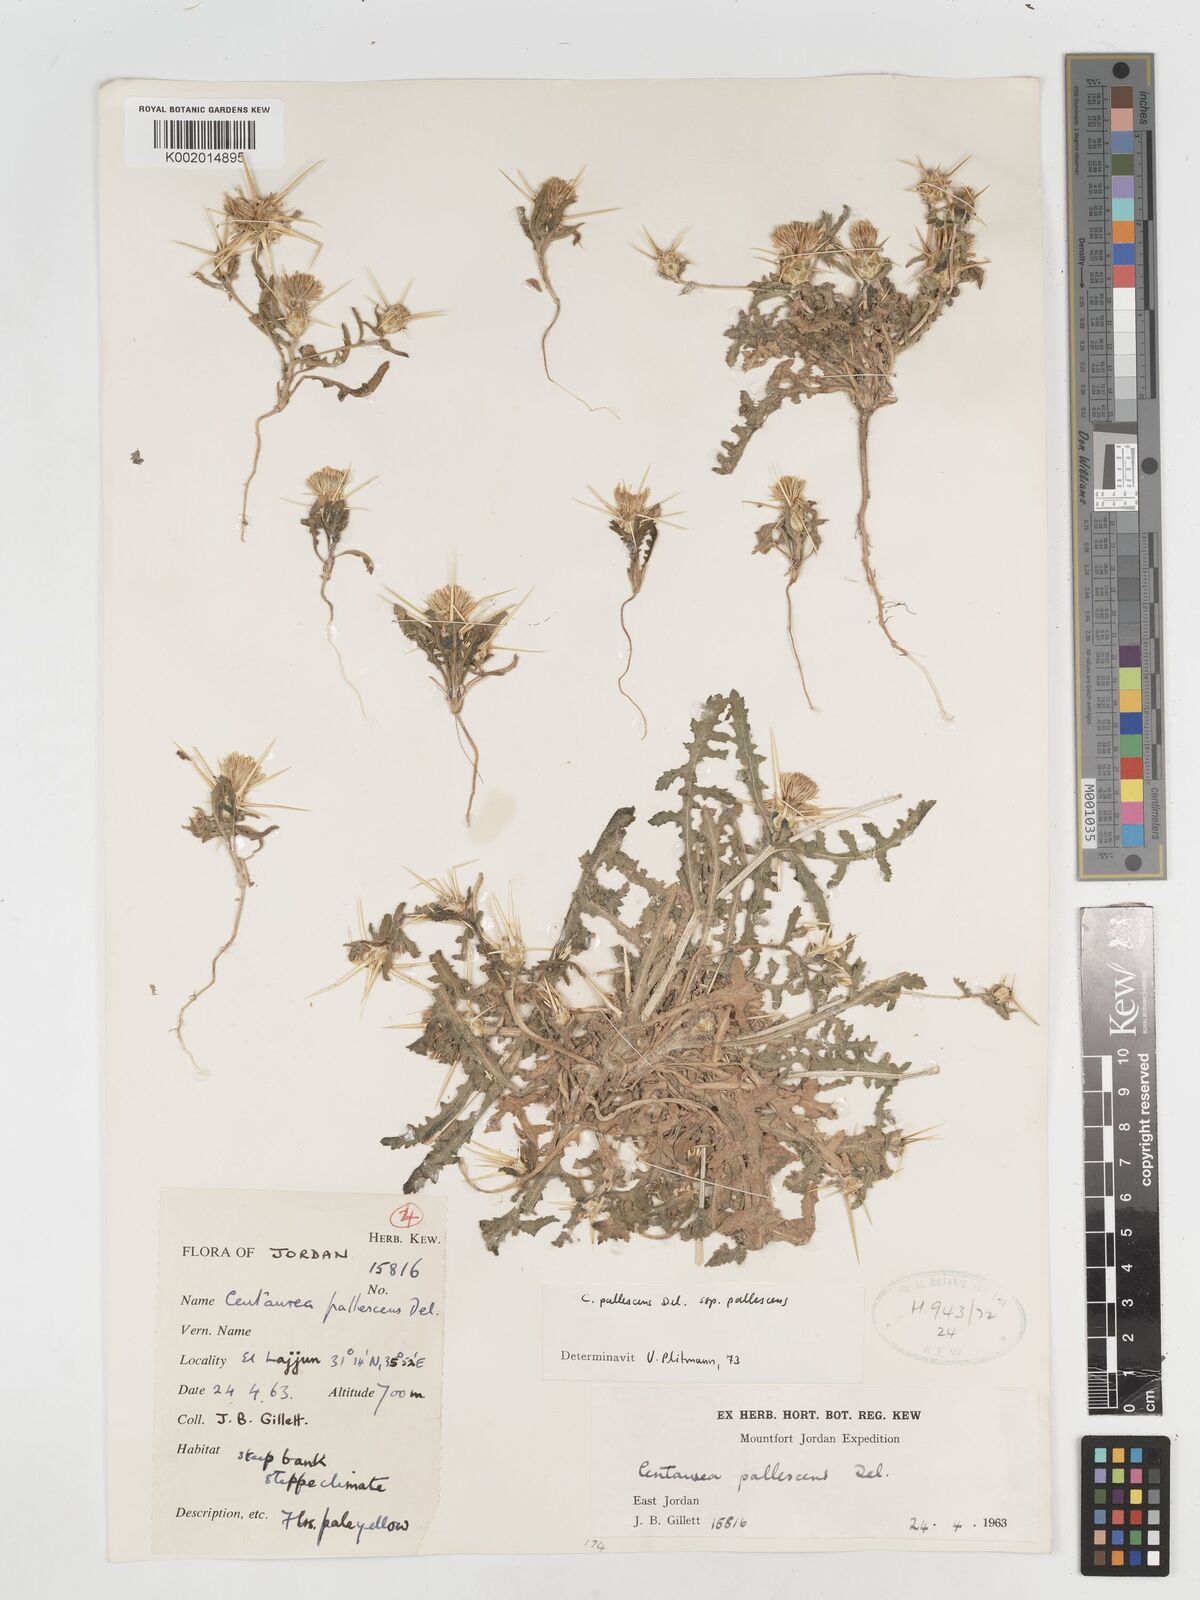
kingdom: Plantae
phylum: Tracheophyta
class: Magnoliopsida
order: Asterales
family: Asteraceae
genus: Centaurea
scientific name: Centaurea pallescens
